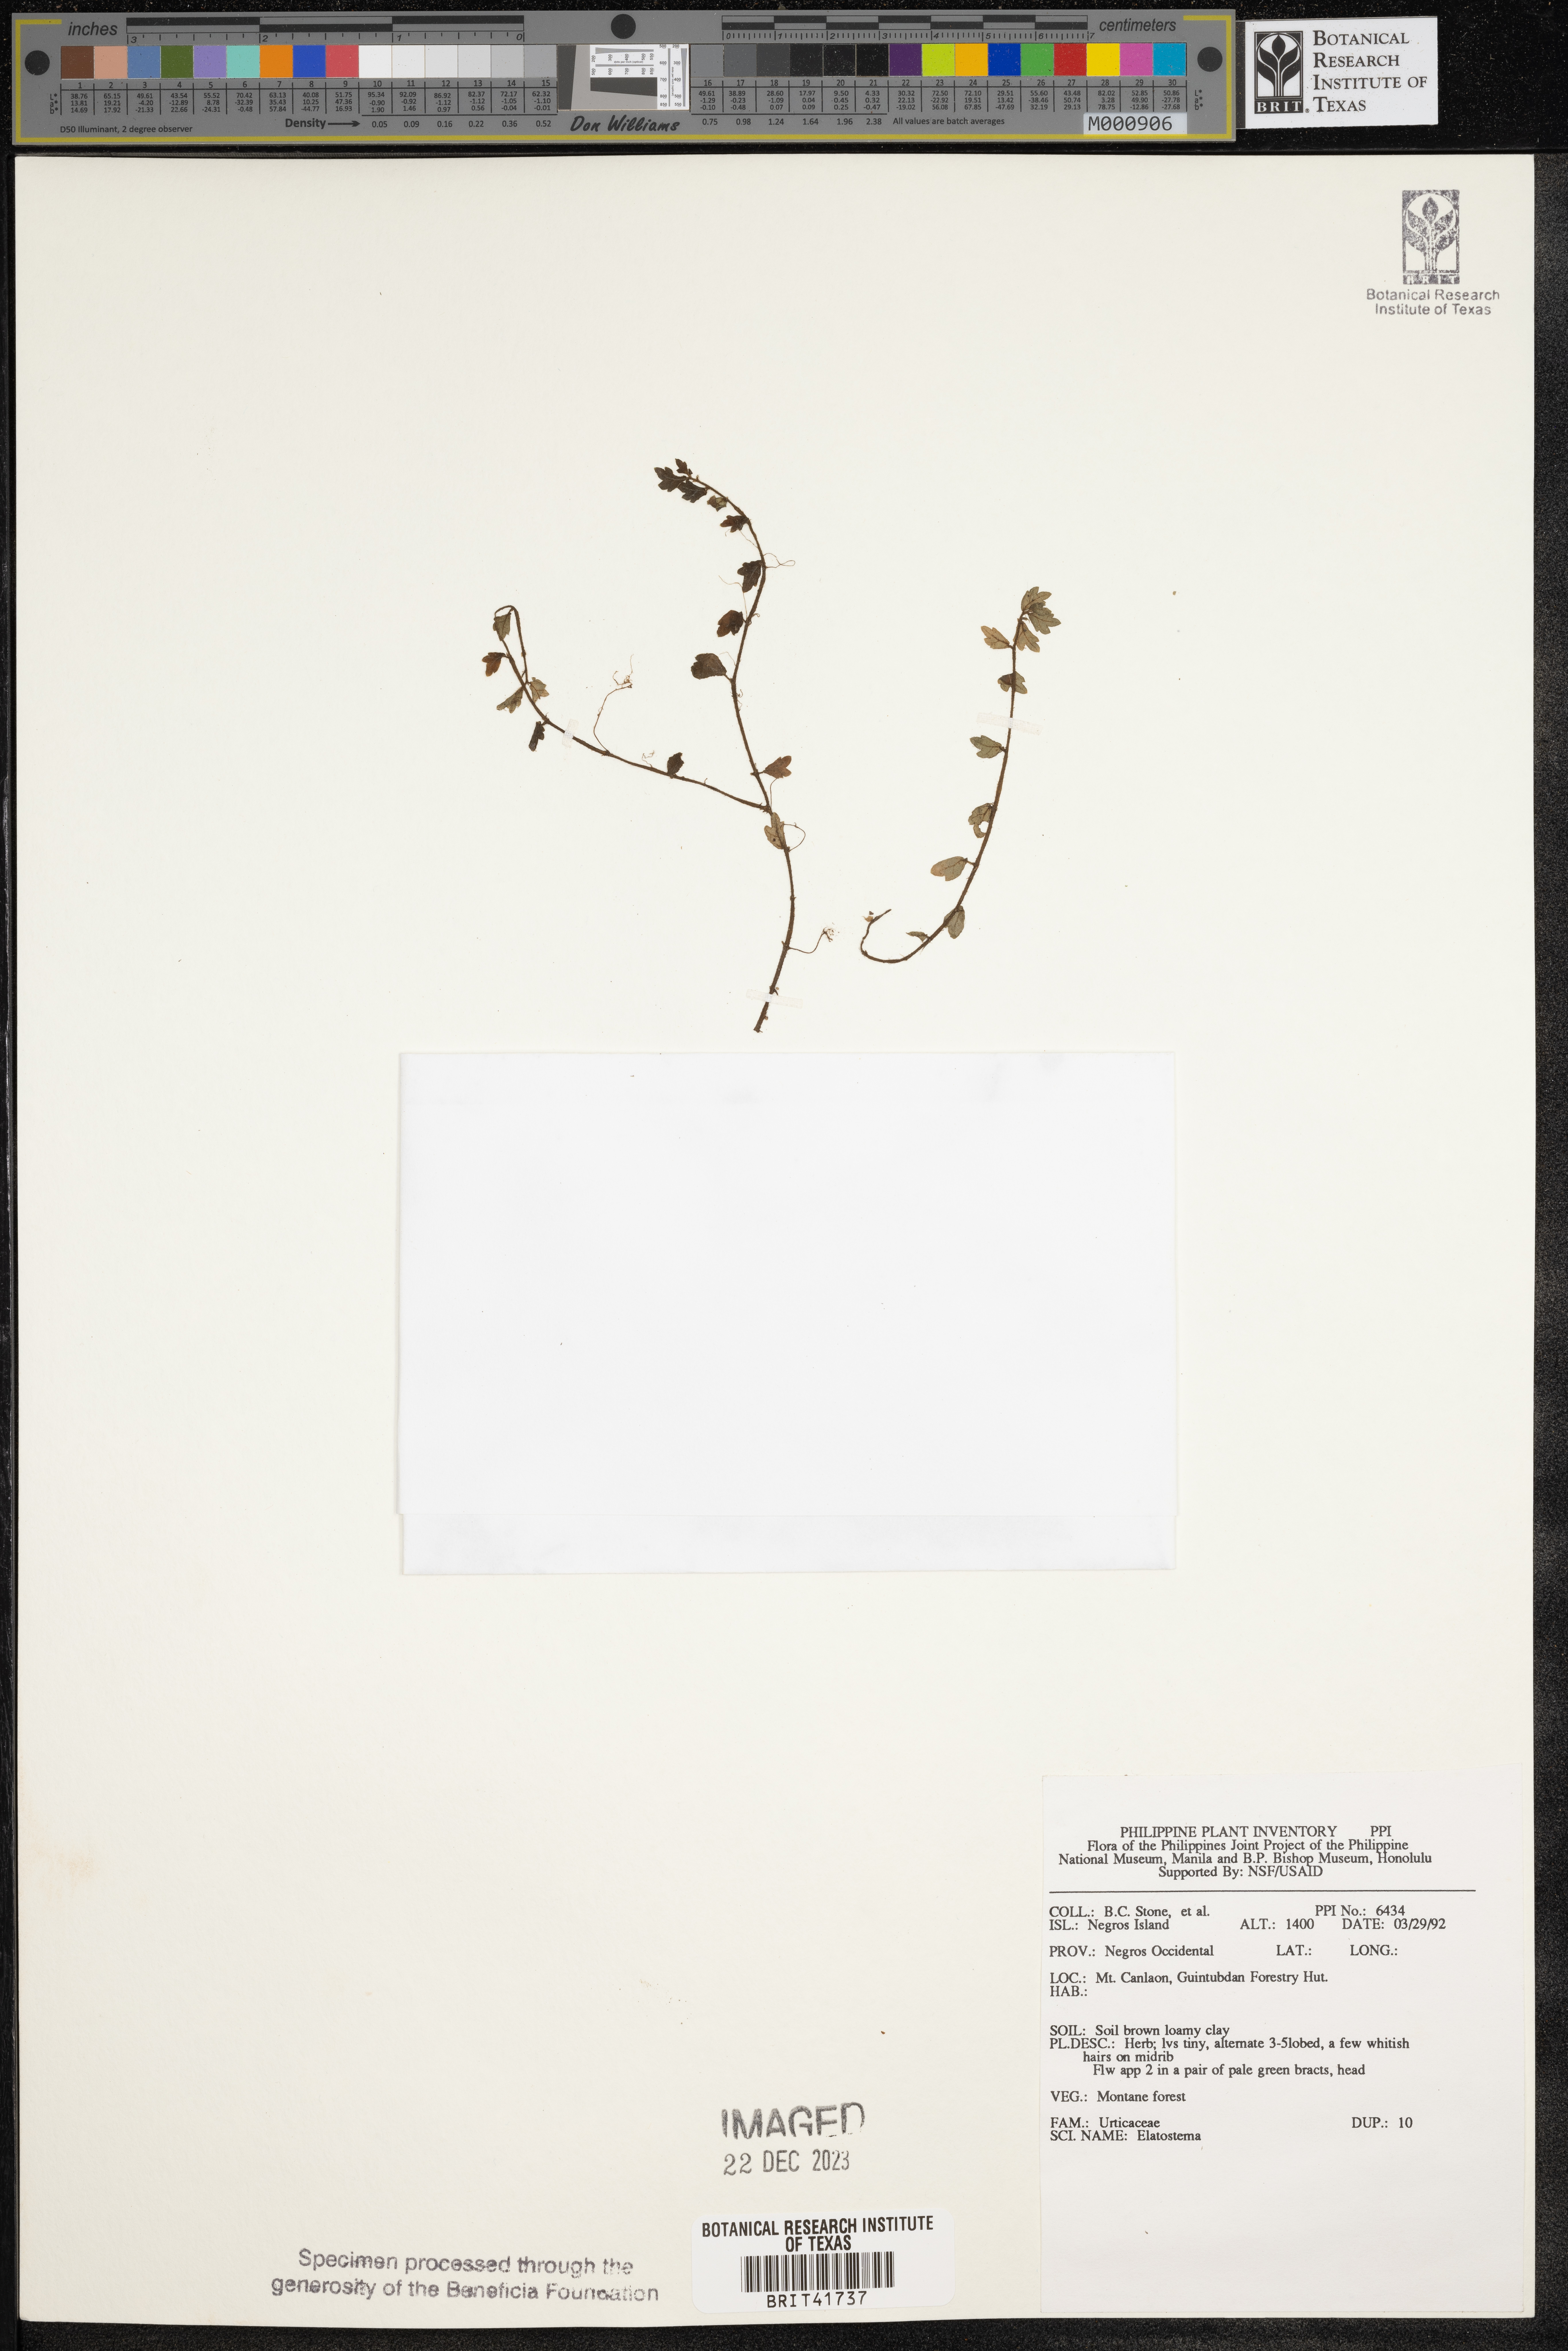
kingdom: Plantae
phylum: Tracheophyta
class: Magnoliopsida
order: Rosales
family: Urticaceae
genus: Elatostema
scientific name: Elatostema
